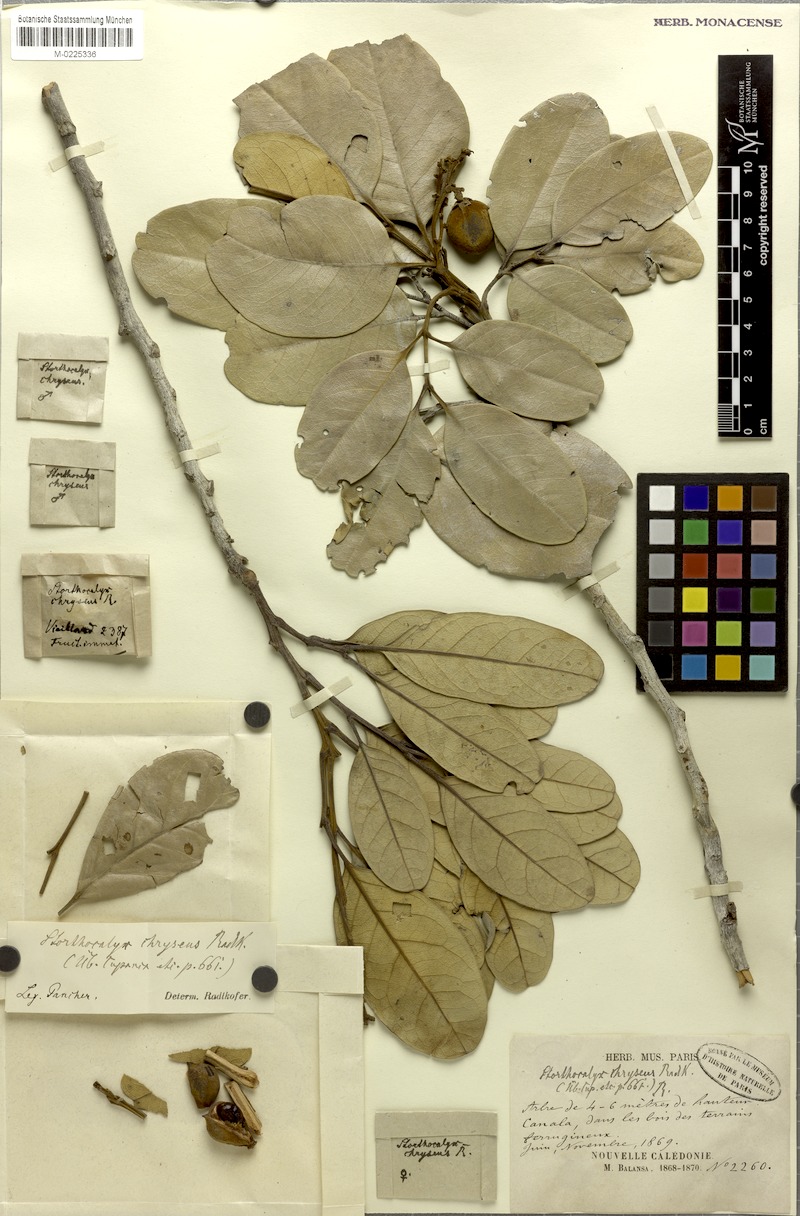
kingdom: Plantae
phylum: Tracheophyta
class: Magnoliopsida
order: Sapindales
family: Sapindaceae
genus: Storthocalyx
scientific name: Storthocalyx chryseus
